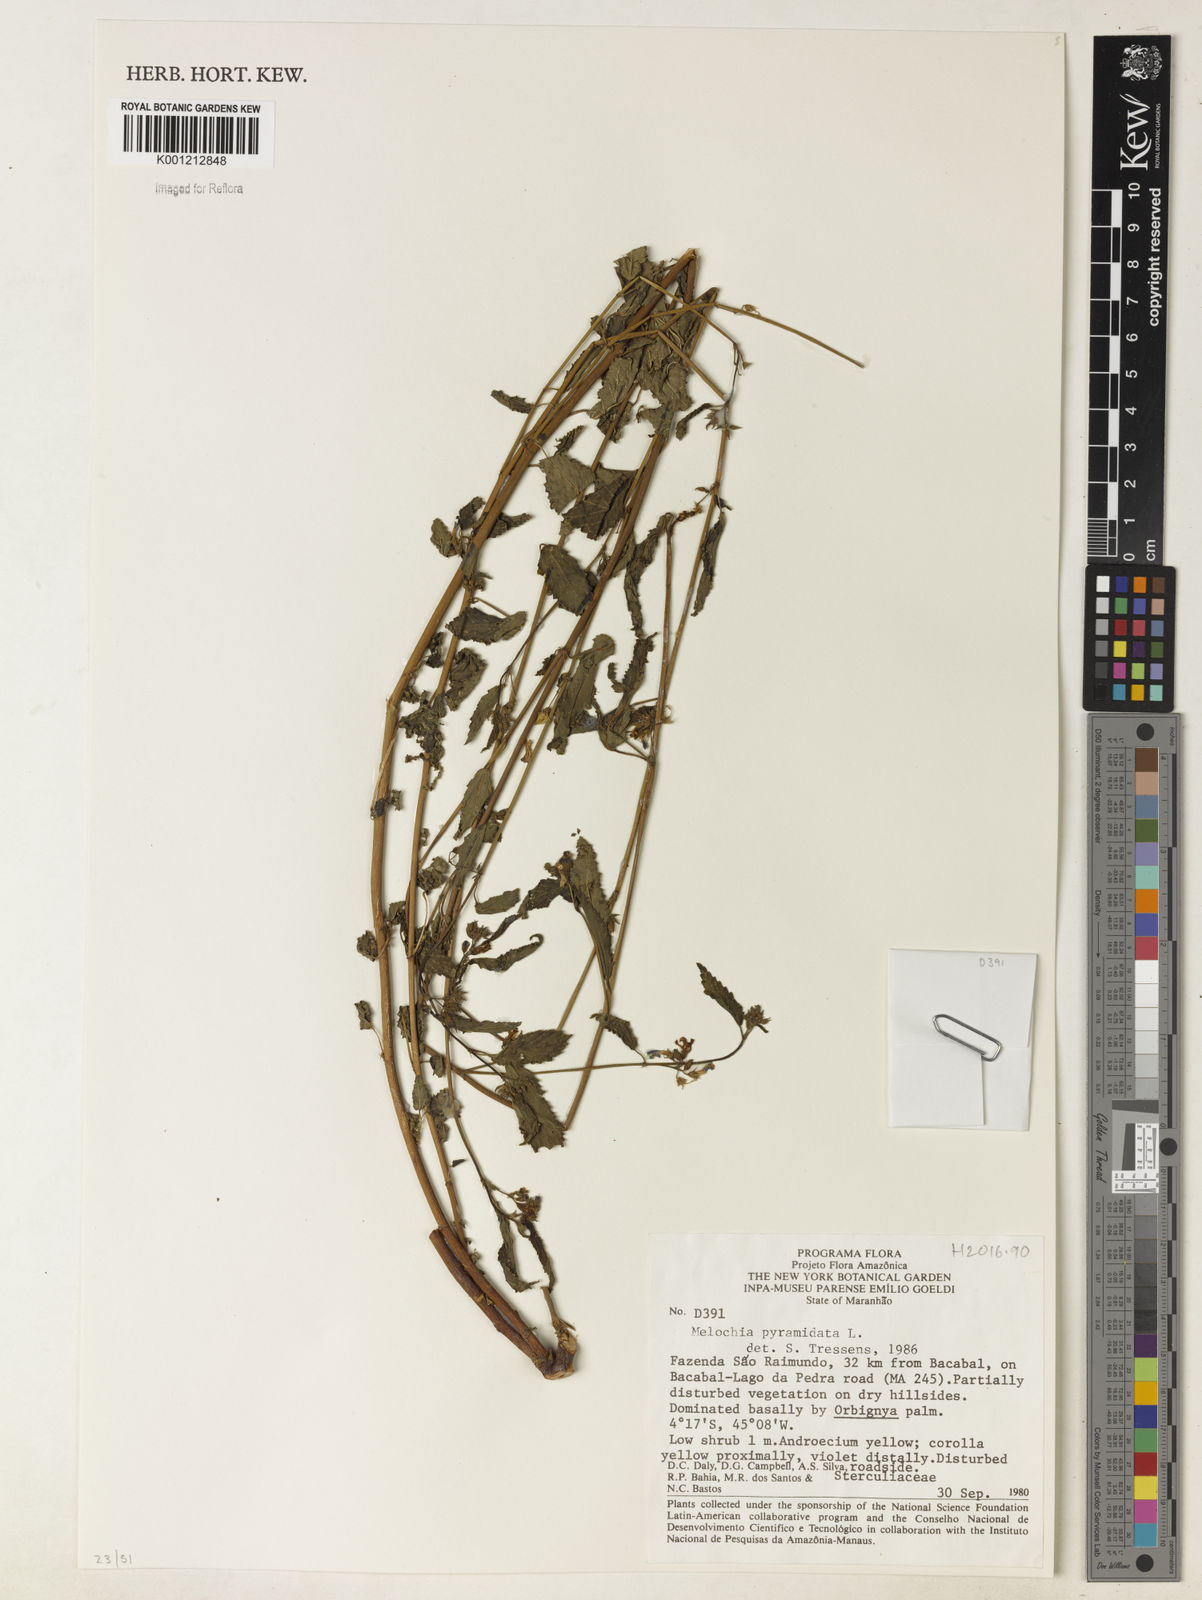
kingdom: Plantae
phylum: Tracheophyta
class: Magnoliopsida
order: Malvales
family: Malvaceae
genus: Melochia
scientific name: Melochia pyramidata
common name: Pyramidflower
